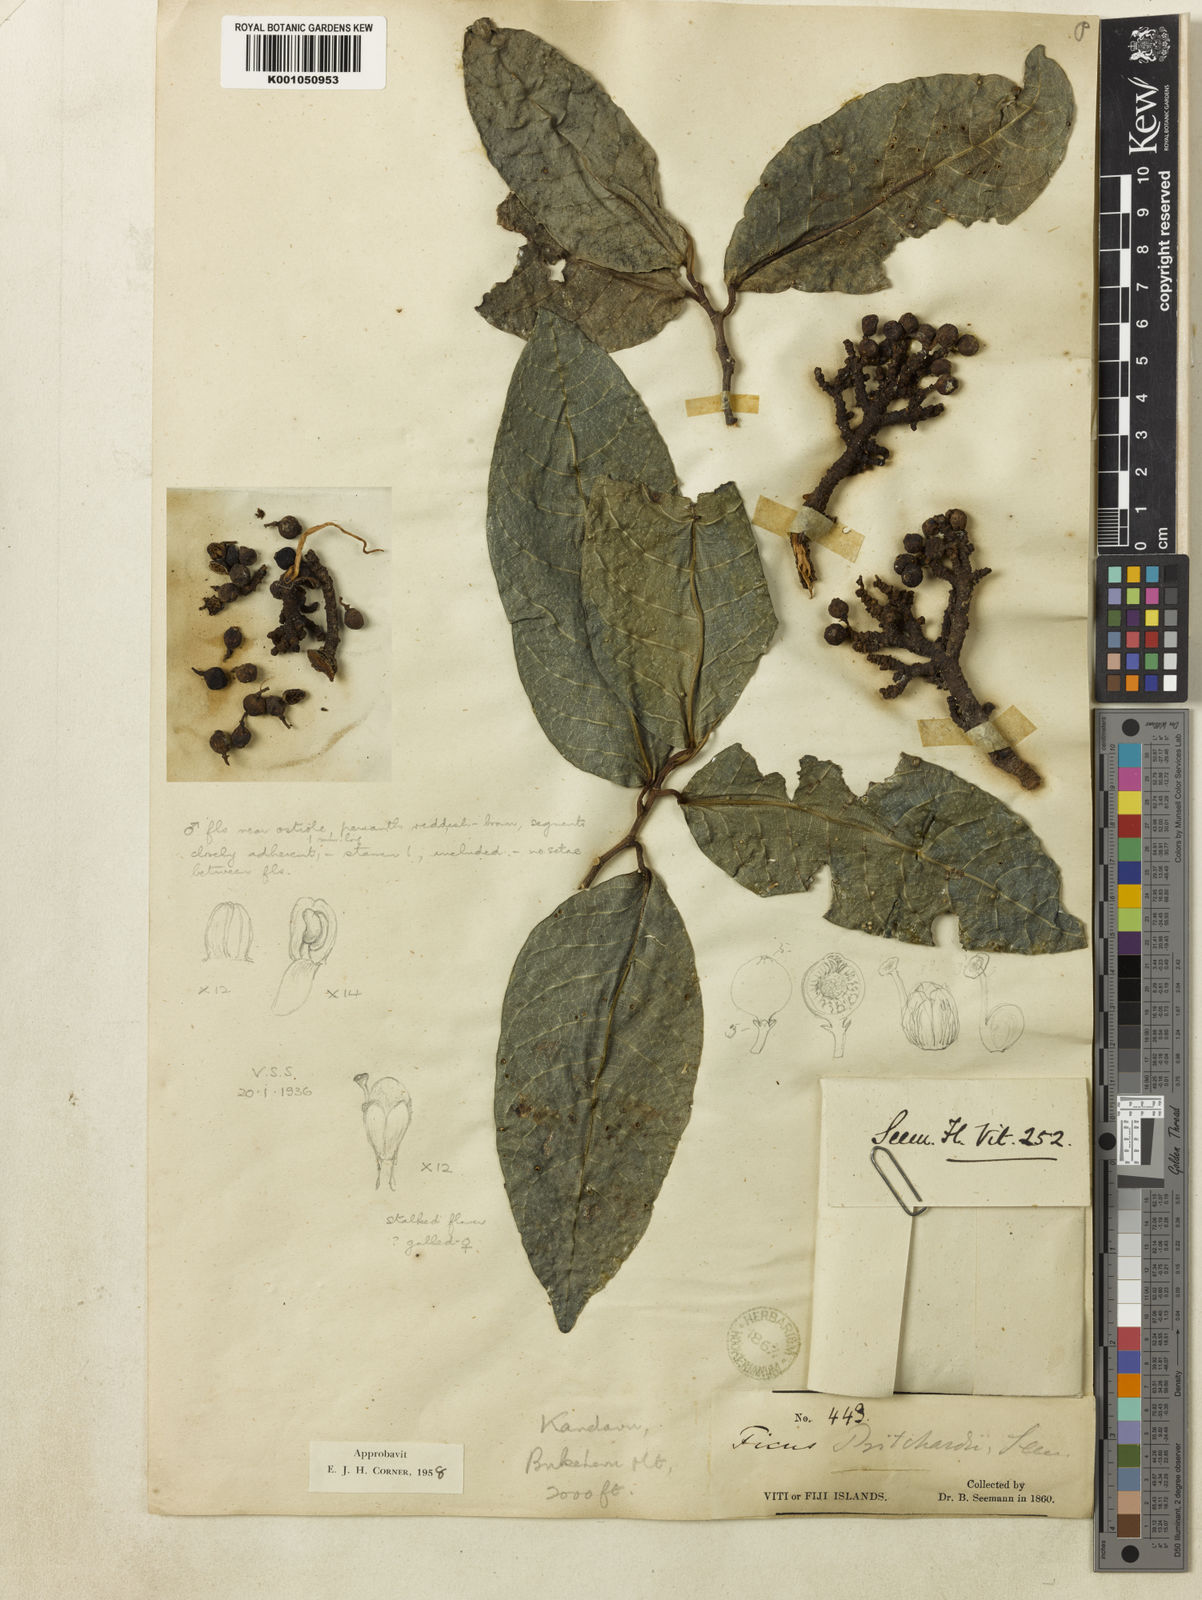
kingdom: Plantae
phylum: Tracheophyta
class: Magnoliopsida
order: Rosales
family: Moraceae
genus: Ficus
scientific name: Ficus pritchardii
